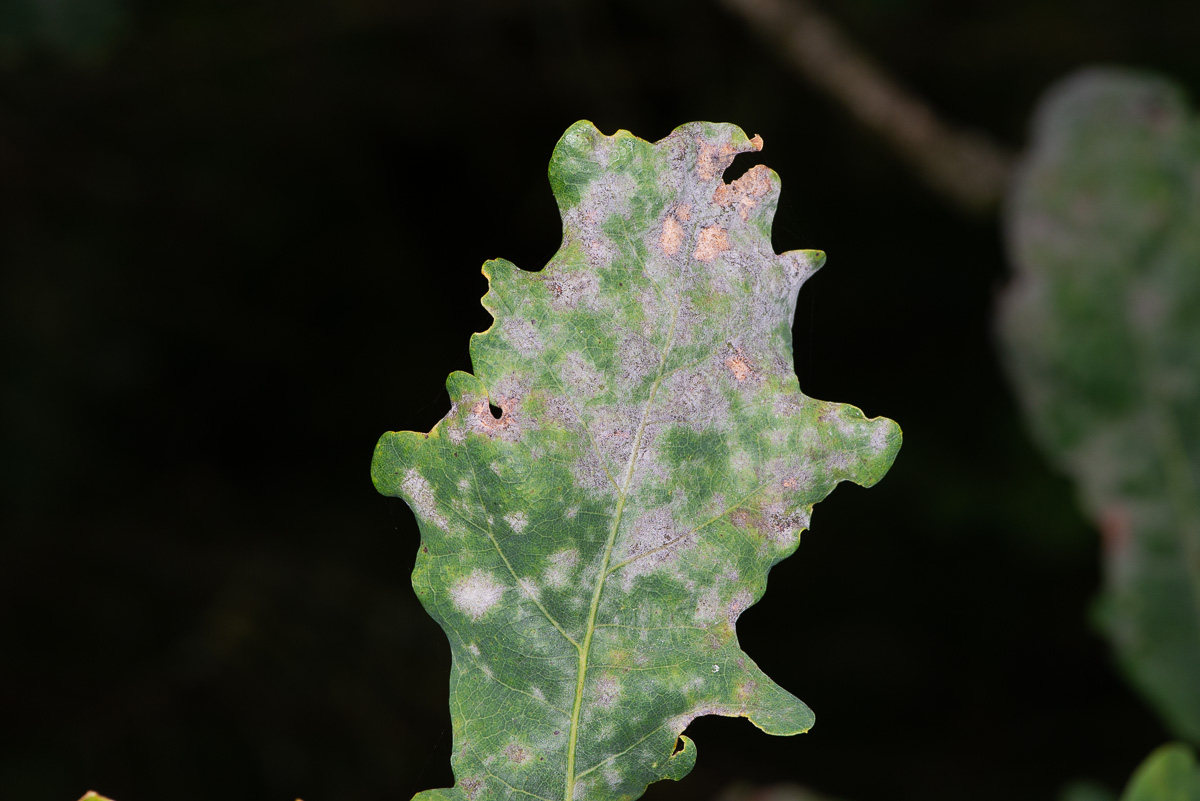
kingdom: Fungi
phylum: Ascomycota
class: Leotiomycetes
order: Helotiales
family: Erysiphaceae
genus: Erysiphe
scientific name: Erysiphe alphitoides
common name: ege-meldug
